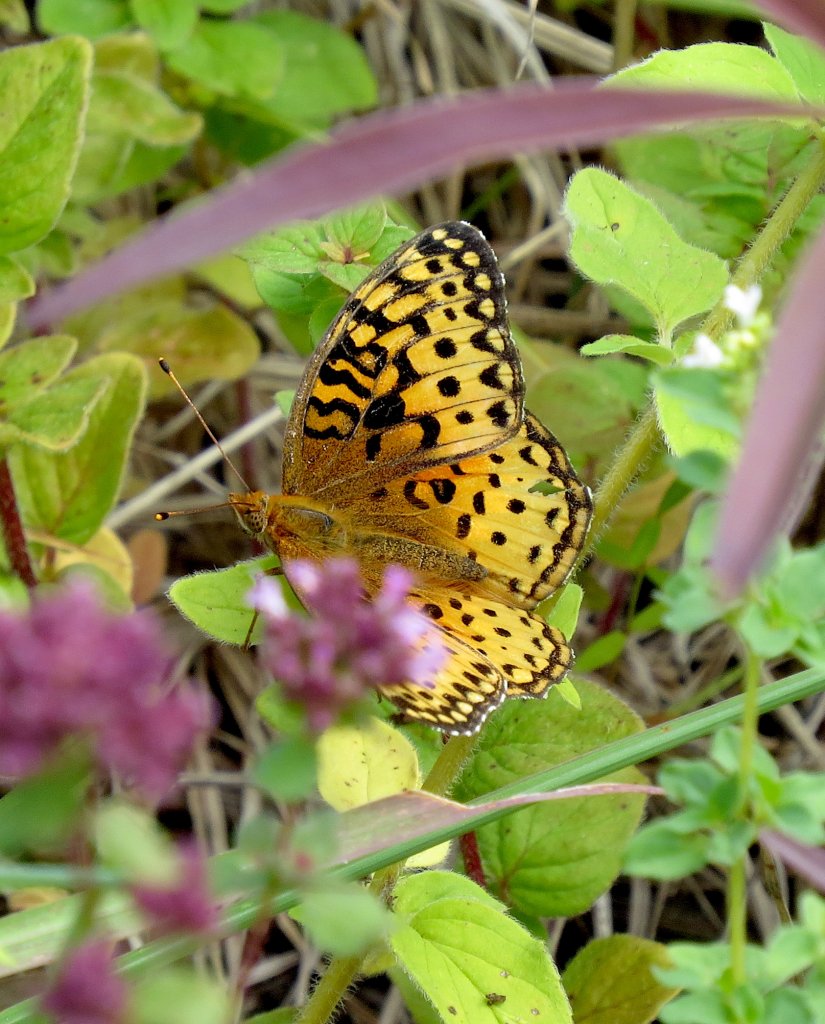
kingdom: Animalia
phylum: Arthropoda
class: Insecta
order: Lepidoptera
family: Nymphalidae
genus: Speyeria
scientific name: Speyeria aphrodite
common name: Aphrodite Fritillary
